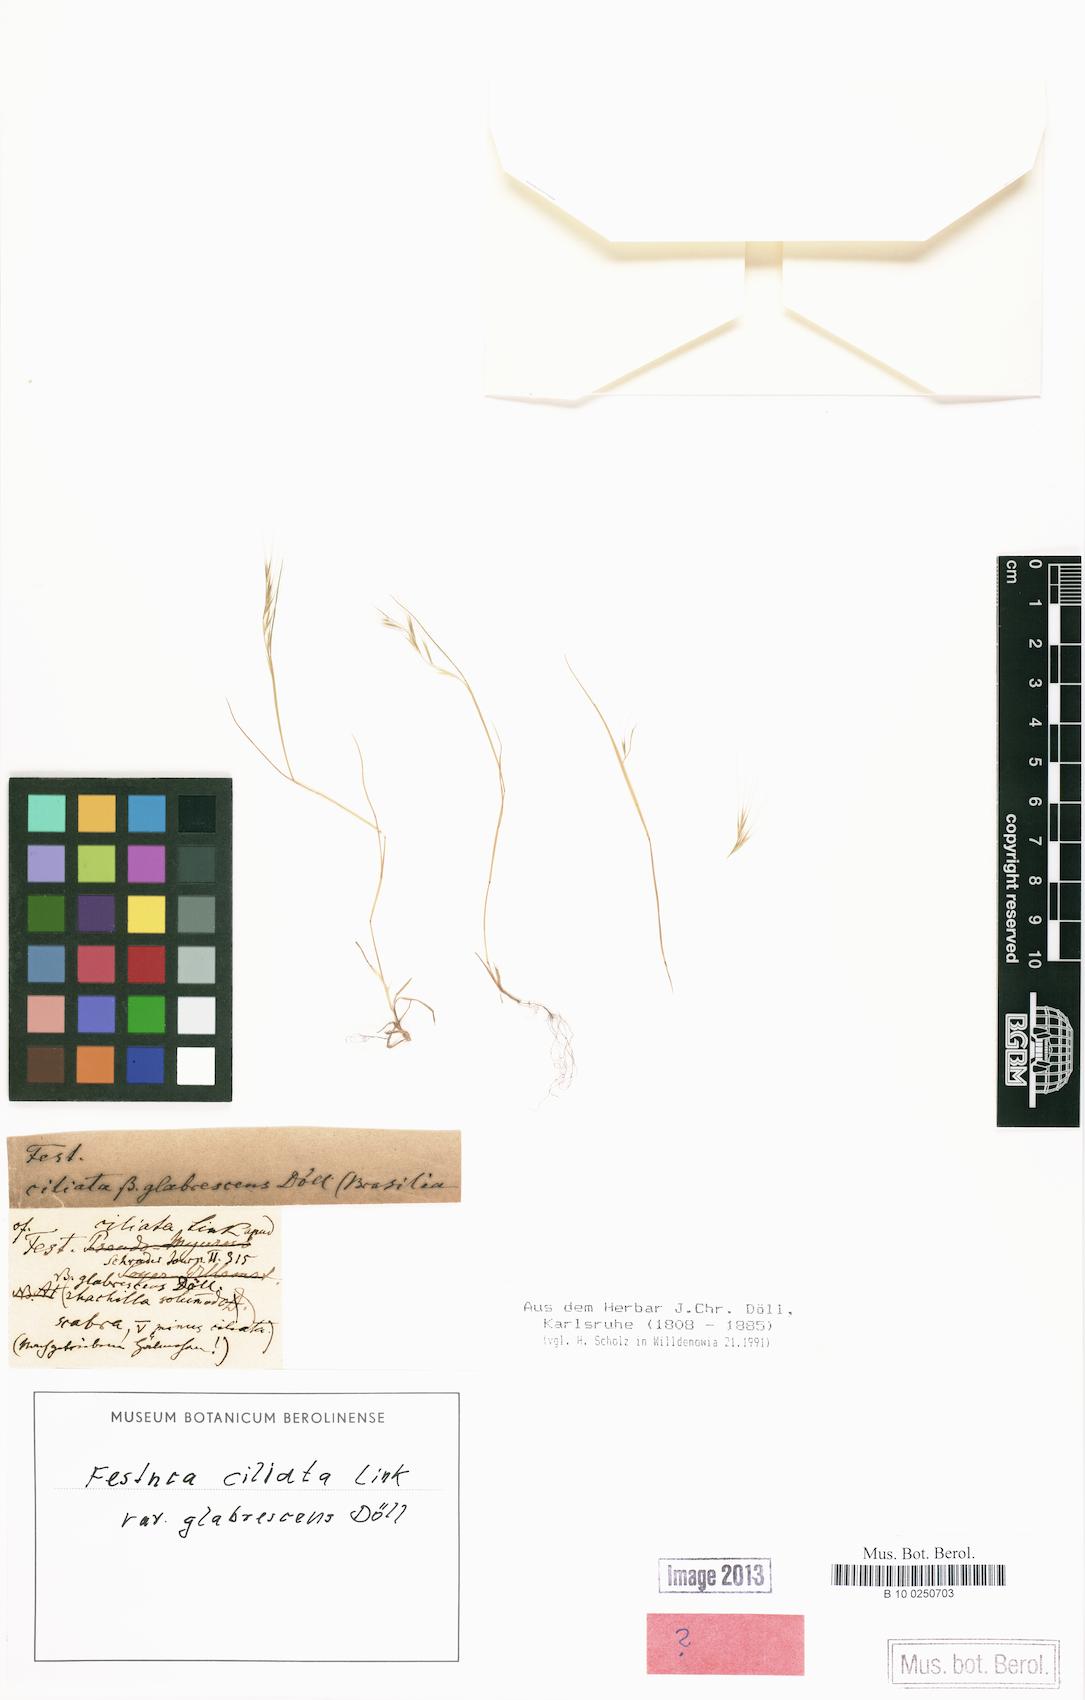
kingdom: Plantae
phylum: Tracheophyta
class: Liliopsida
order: Poales
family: Poaceae
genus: Festuca
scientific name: Festuca ambigua
